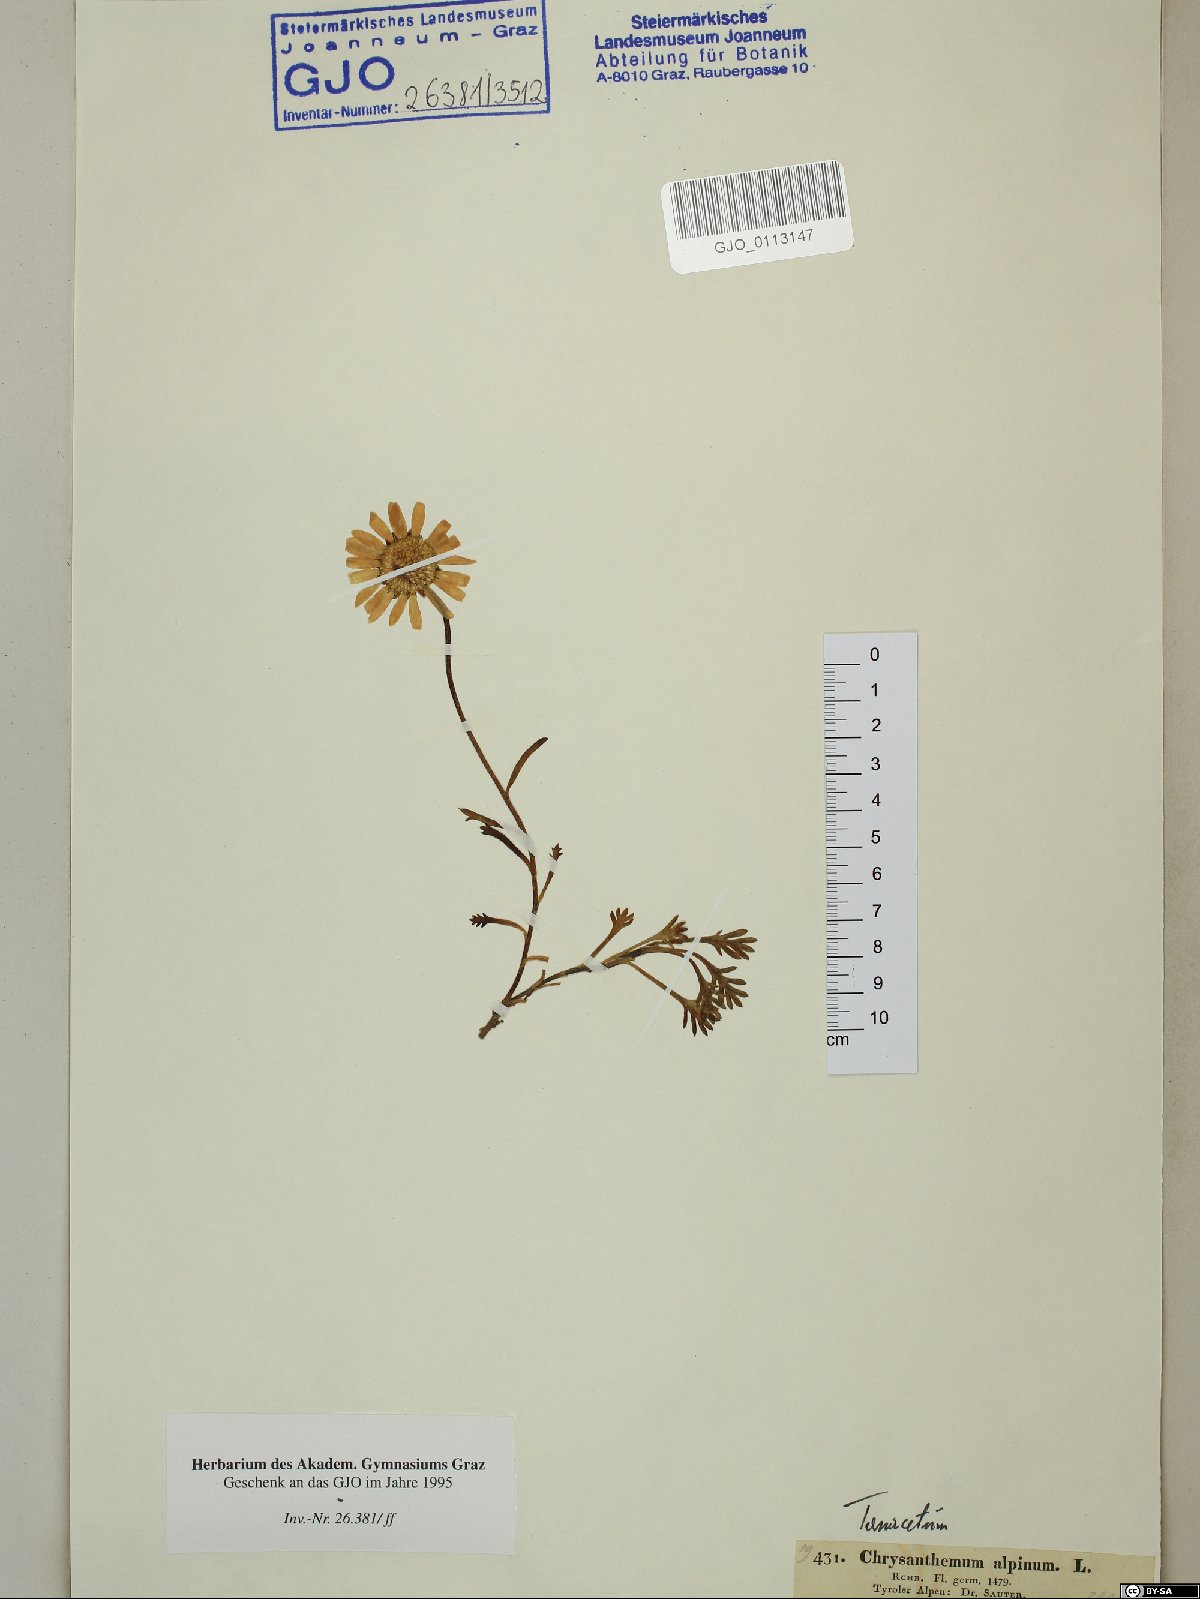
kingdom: Plantae
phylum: Tracheophyta
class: Magnoliopsida
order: Asterales
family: Asteraceae
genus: Leucanthemopsis
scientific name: Leucanthemopsis alpina
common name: Alpine moon daisy
